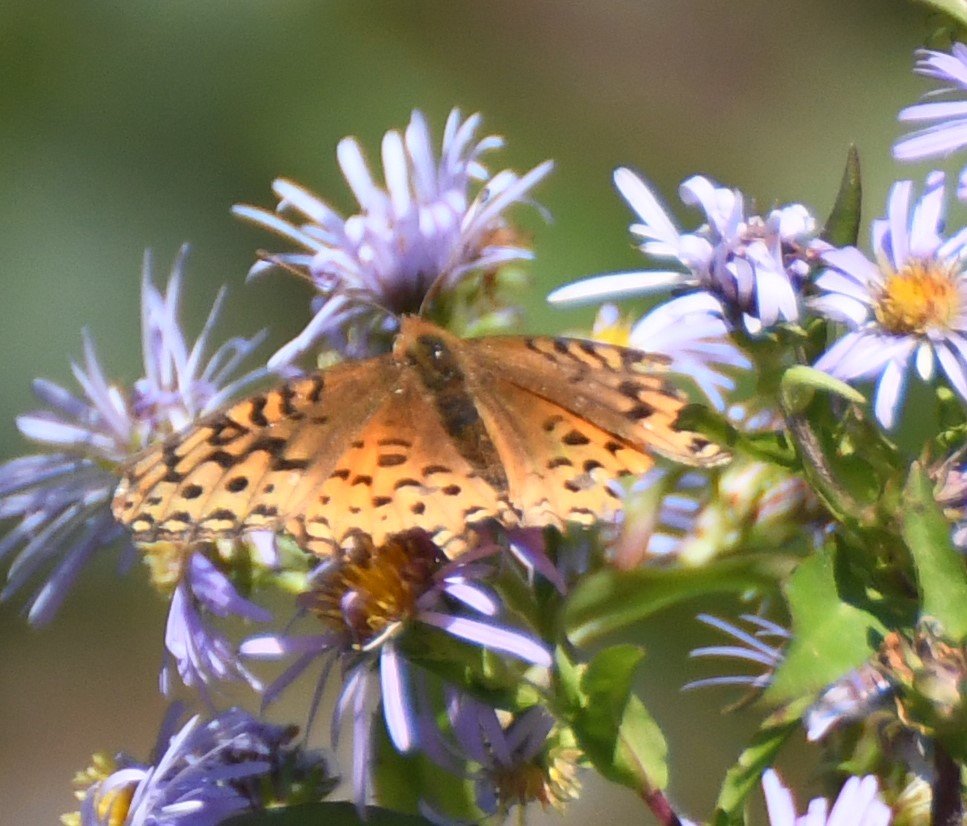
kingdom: Animalia
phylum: Arthropoda
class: Insecta
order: Lepidoptera
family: Nymphalidae
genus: Speyeria
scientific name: Speyeria aphrodite
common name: Aphrodite Fritillary
